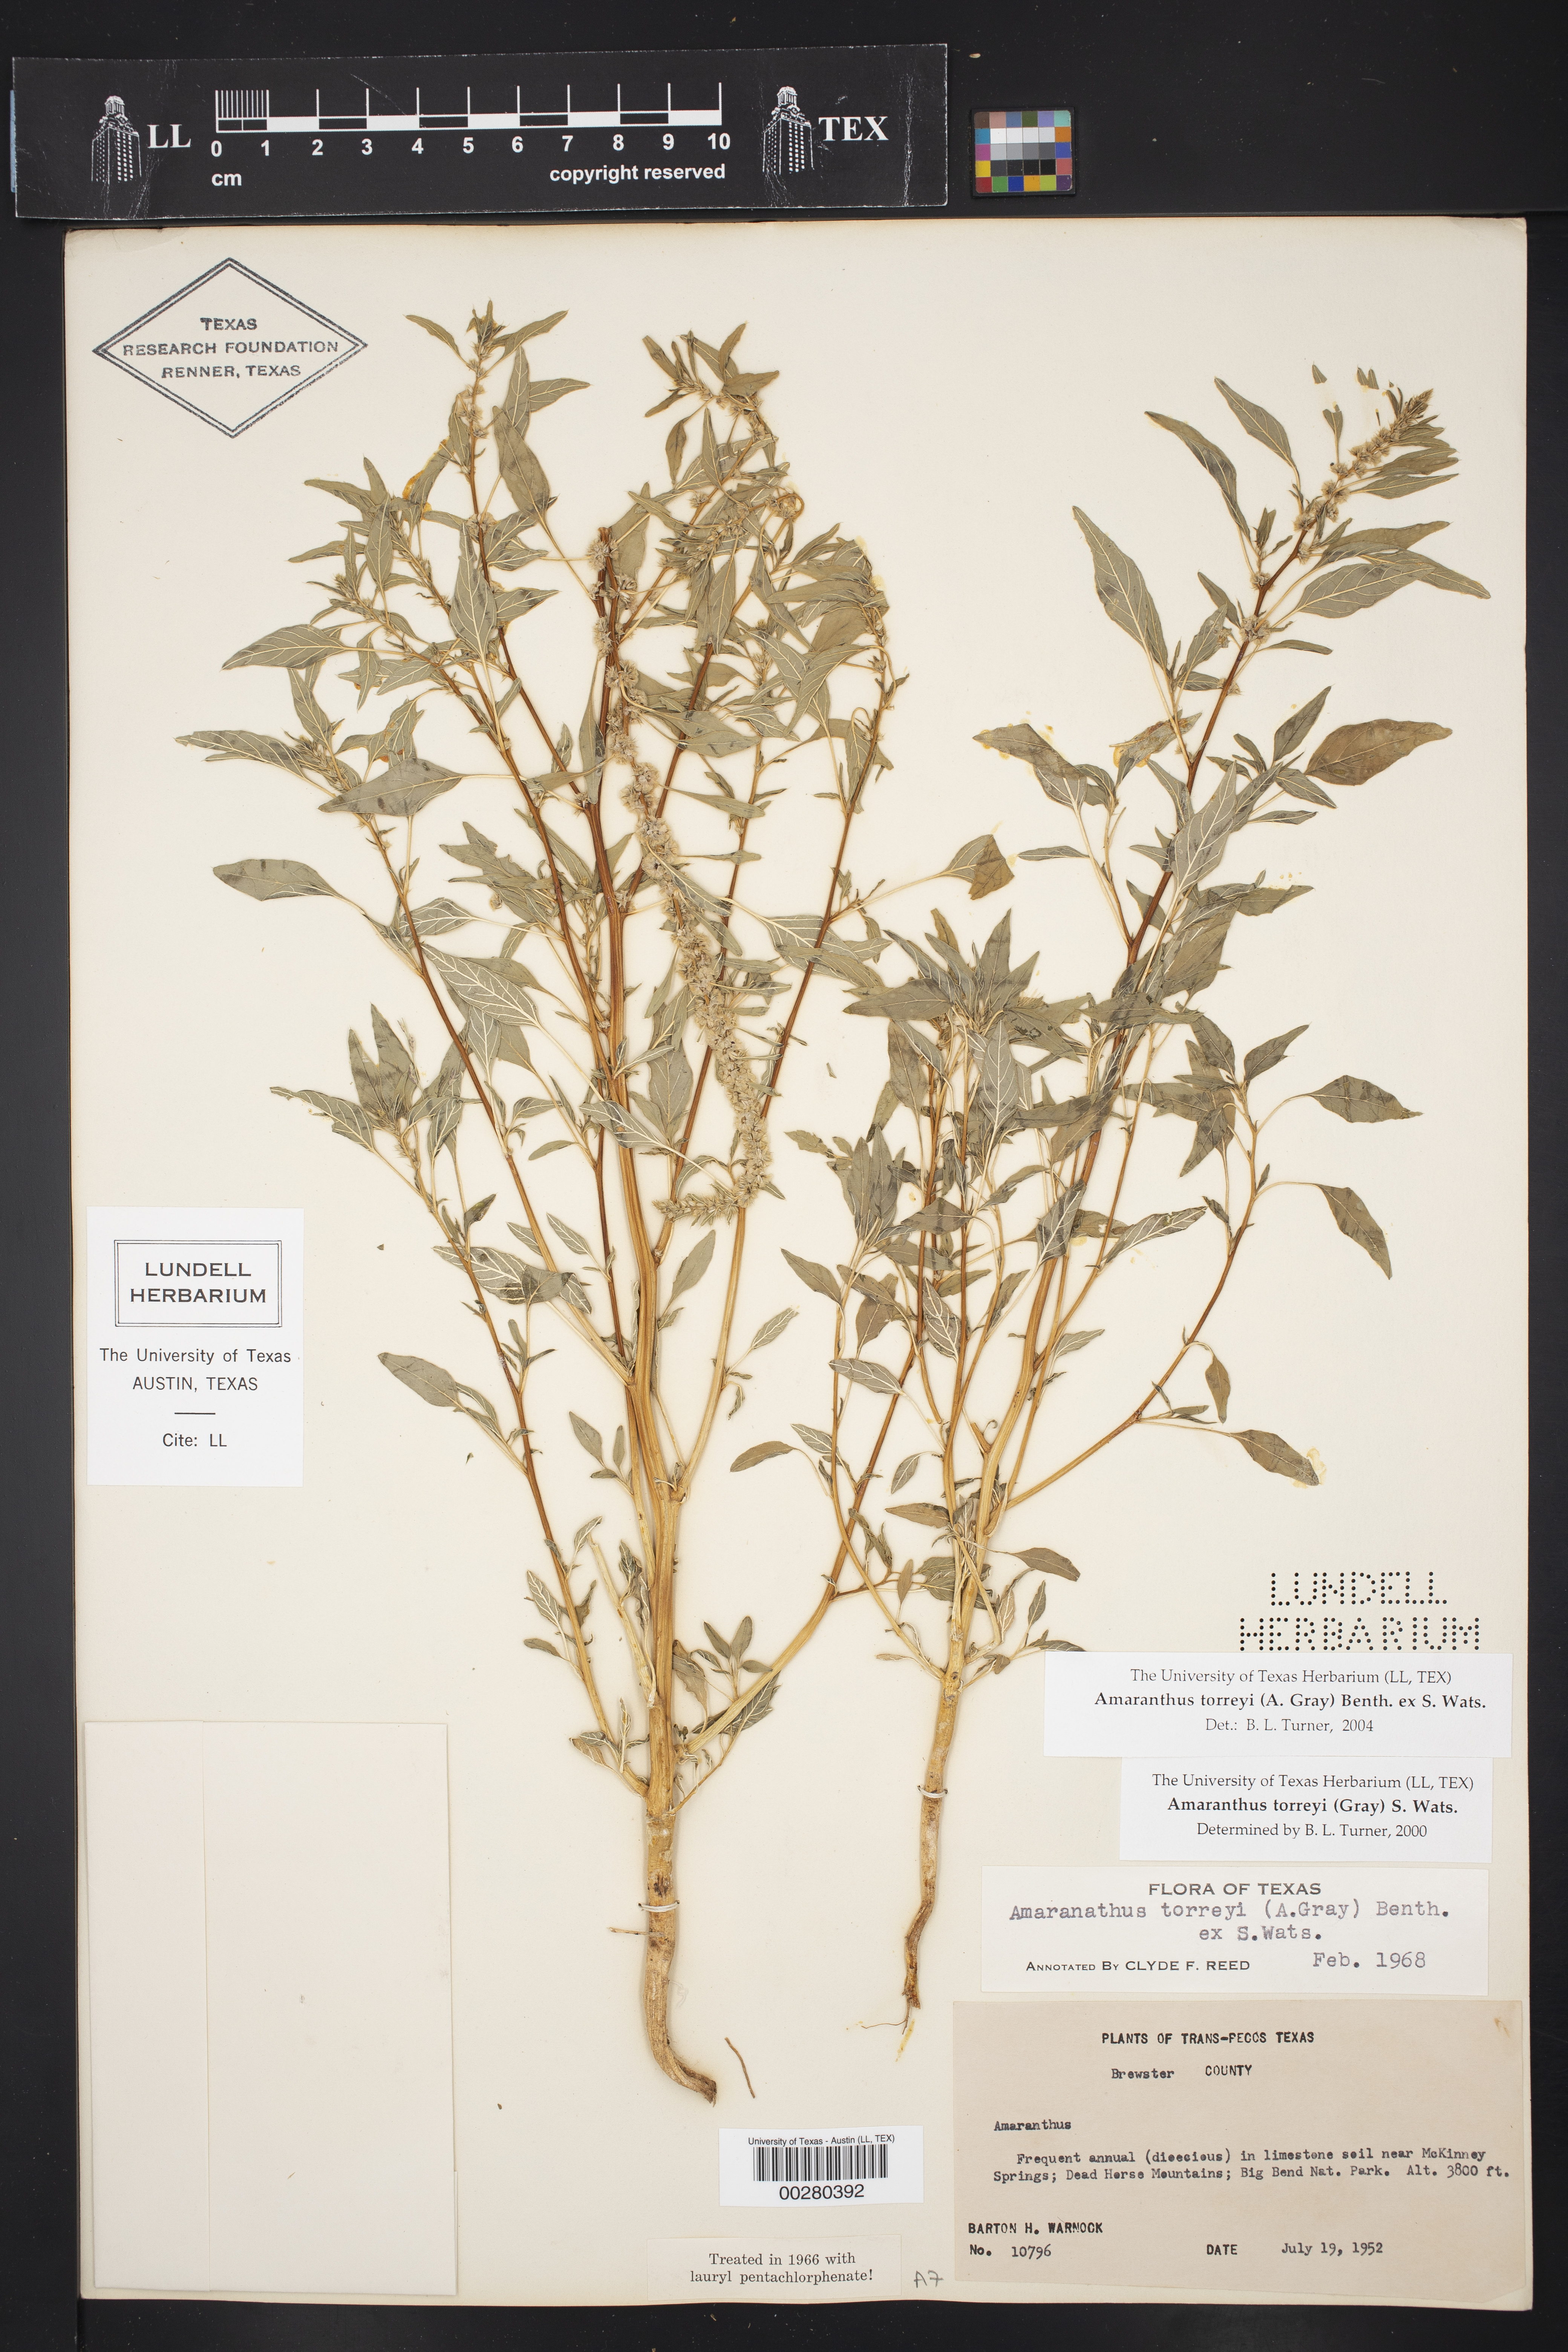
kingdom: Plantae
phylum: Tracheophyta
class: Magnoliopsida
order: Caryophyllales
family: Amaranthaceae
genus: Amaranthus
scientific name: Amaranthus torreyi
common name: Bigelow's amaranth
